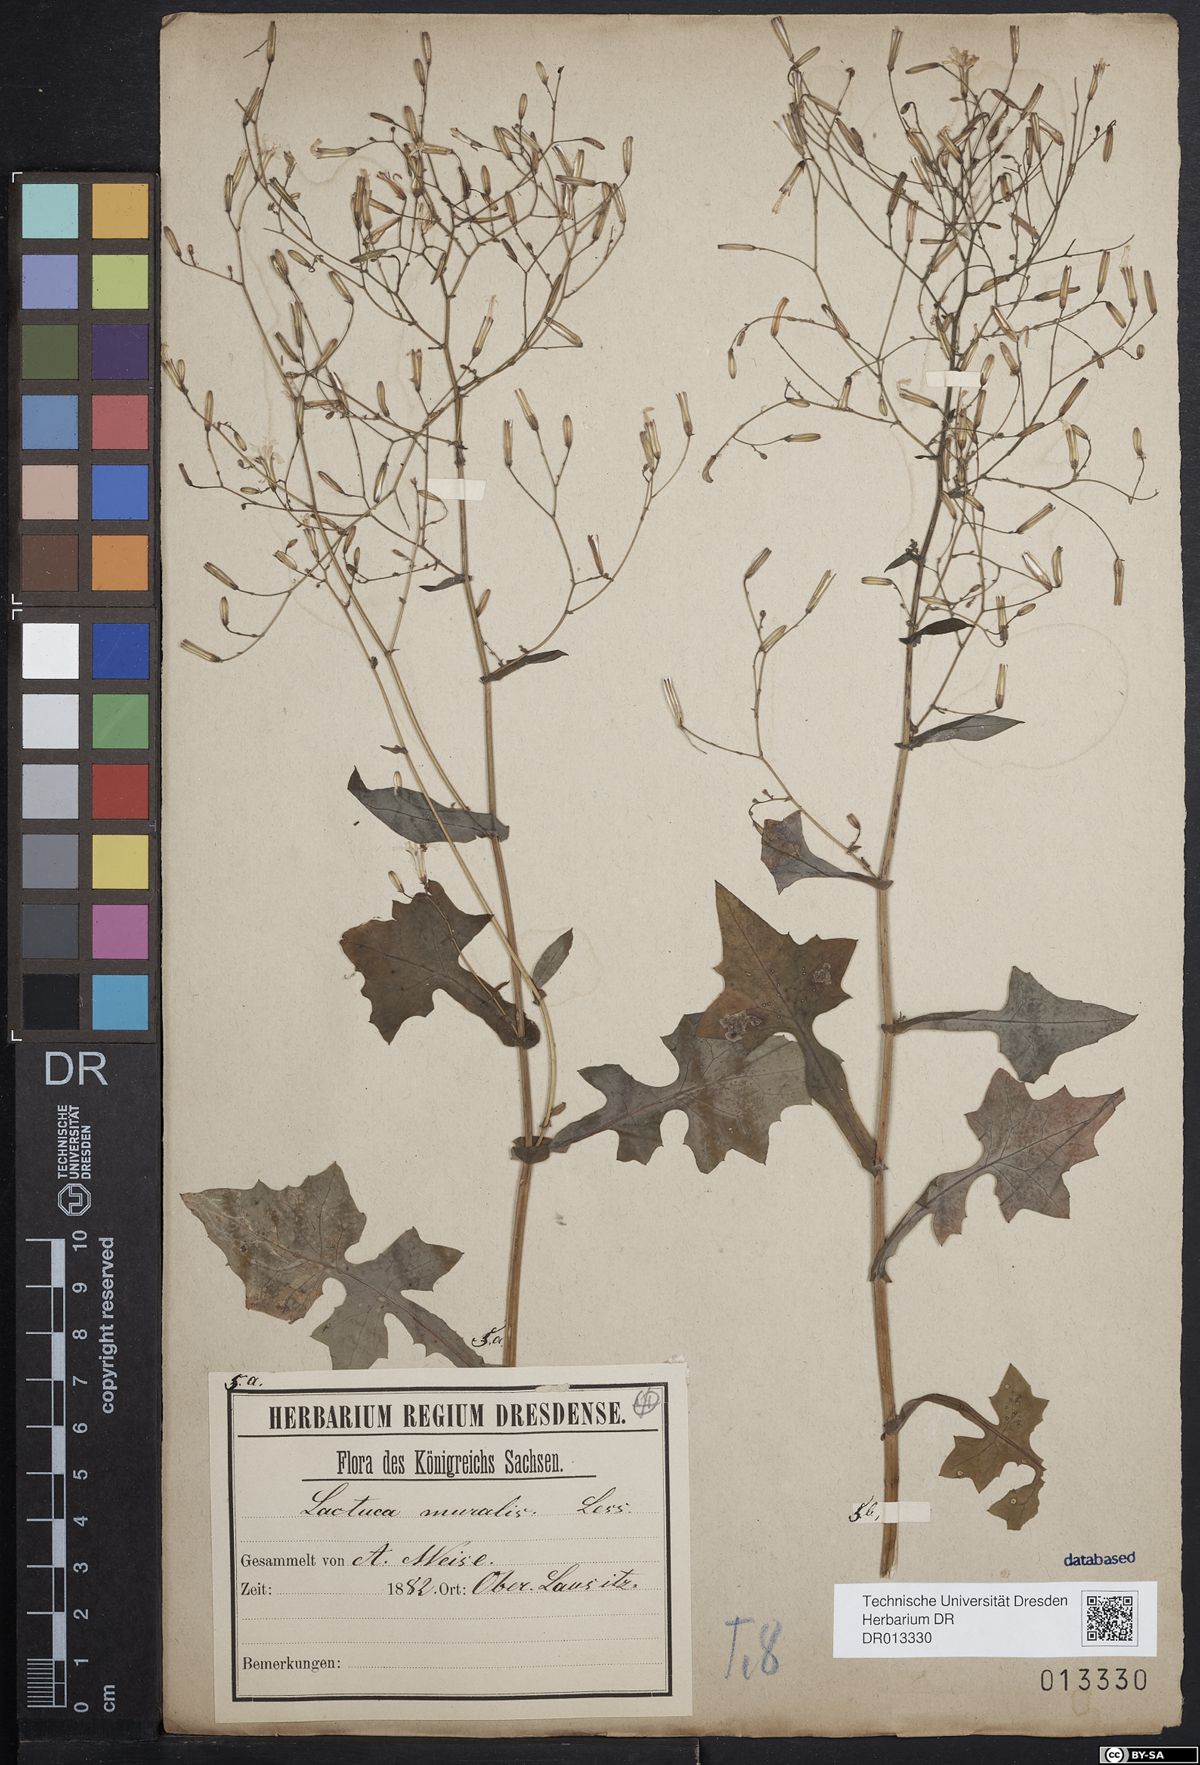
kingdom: Plantae
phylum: Tracheophyta
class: Magnoliopsida
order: Asterales
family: Asteraceae
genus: Mycelis
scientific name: Mycelis muralis
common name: Wall lettuce
